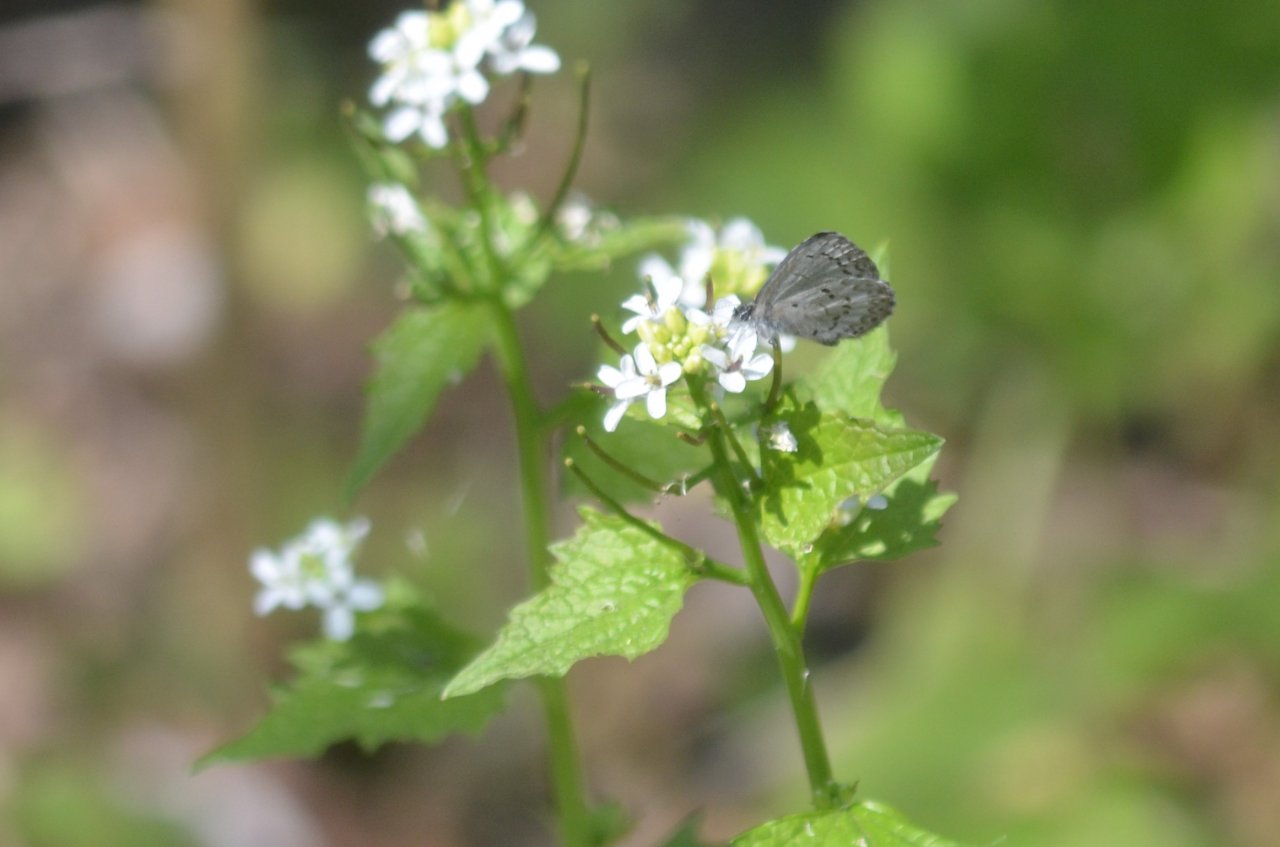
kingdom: Animalia
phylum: Arthropoda
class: Insecta
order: Lepidoptera
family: Lycaenidae
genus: Celastrina
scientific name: Celastrina lucia
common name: Northern Spring Azure
